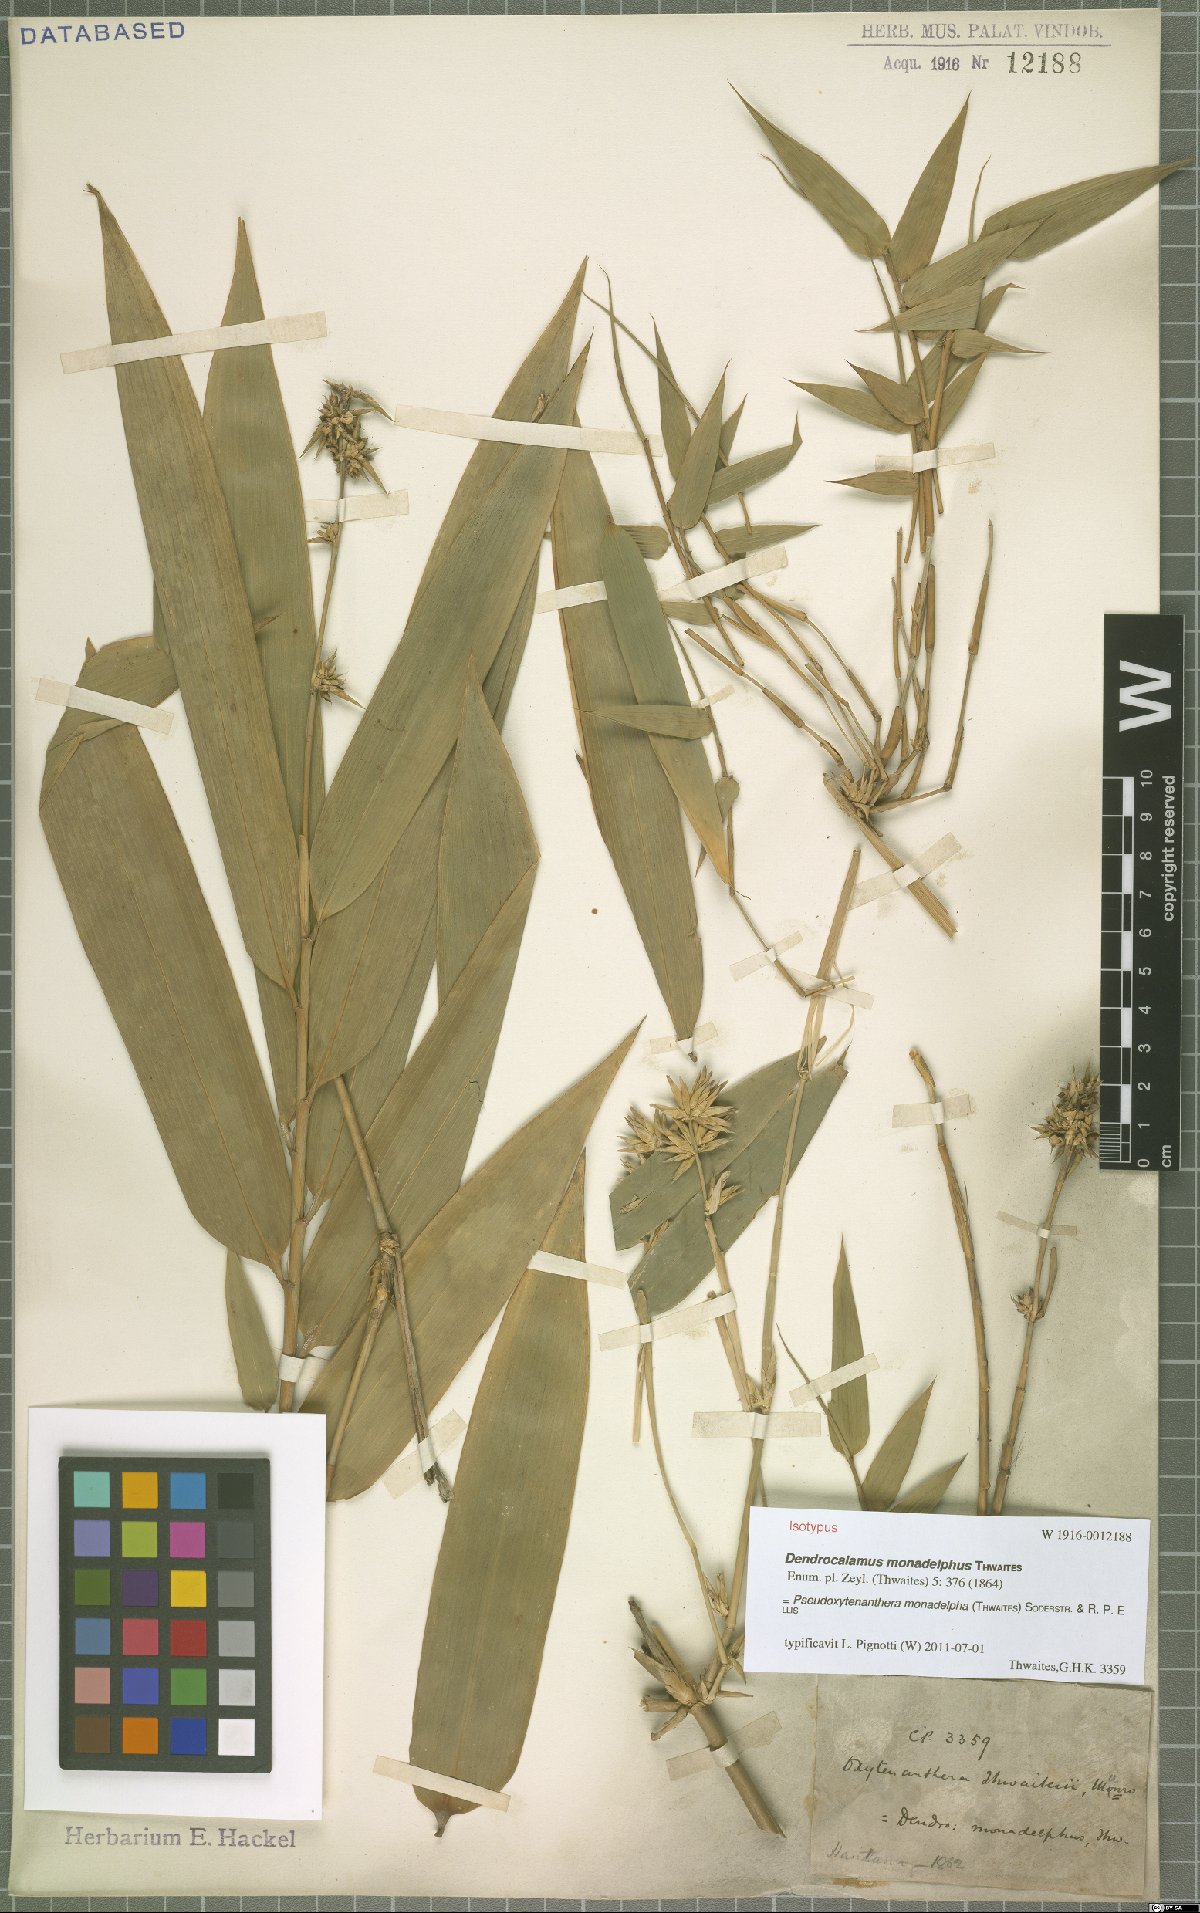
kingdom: Plantae
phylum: Tracheophyta
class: Liliopsida
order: Poales
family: Poaceae
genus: Pseudoxytenanthera
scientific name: Pseudoxytenanthera monadelpha
